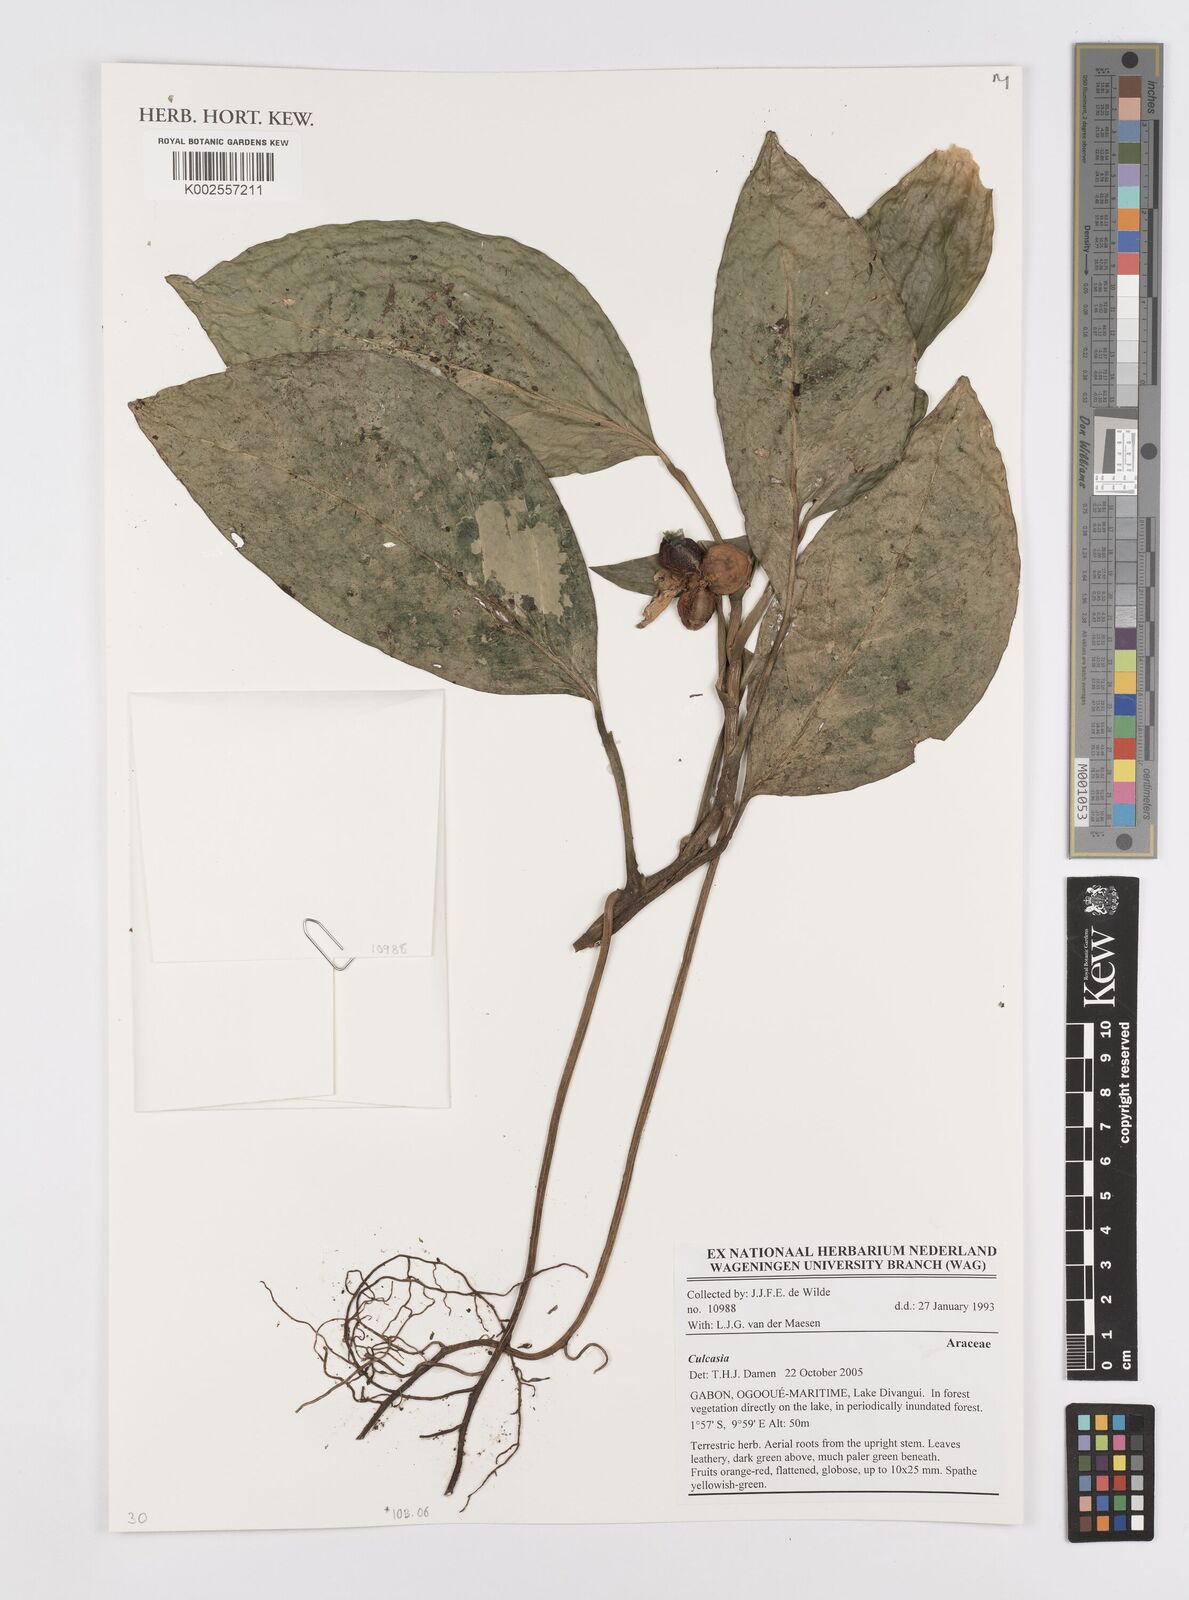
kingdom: Plantae
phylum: Tracheophyta
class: Liliopsida
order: Alismatales
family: Araceae
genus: Culcasia
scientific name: Culcasia
